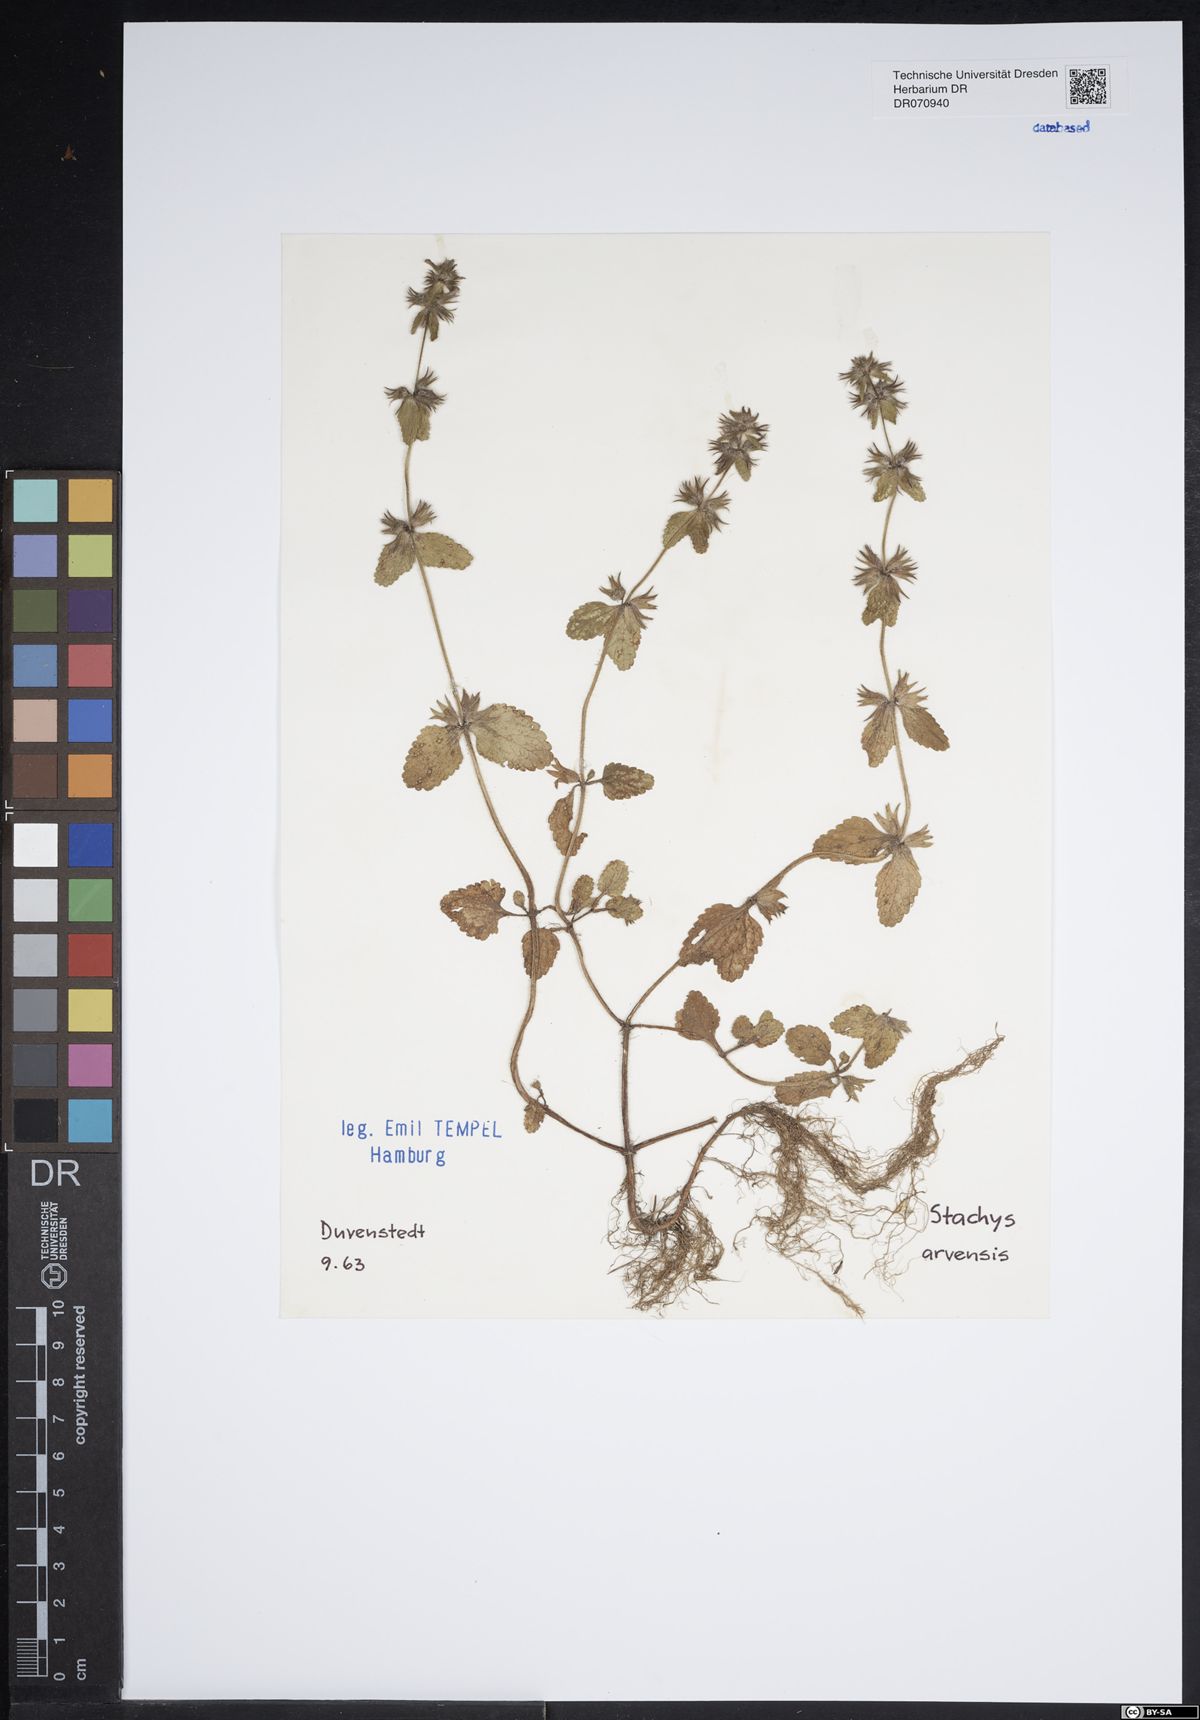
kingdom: Plantae
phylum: Tracheophyta
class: Magnoliopsida
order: Lamiales
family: Lamiaceae
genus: Stachys
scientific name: Stachys arvensis
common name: Field woundwort
